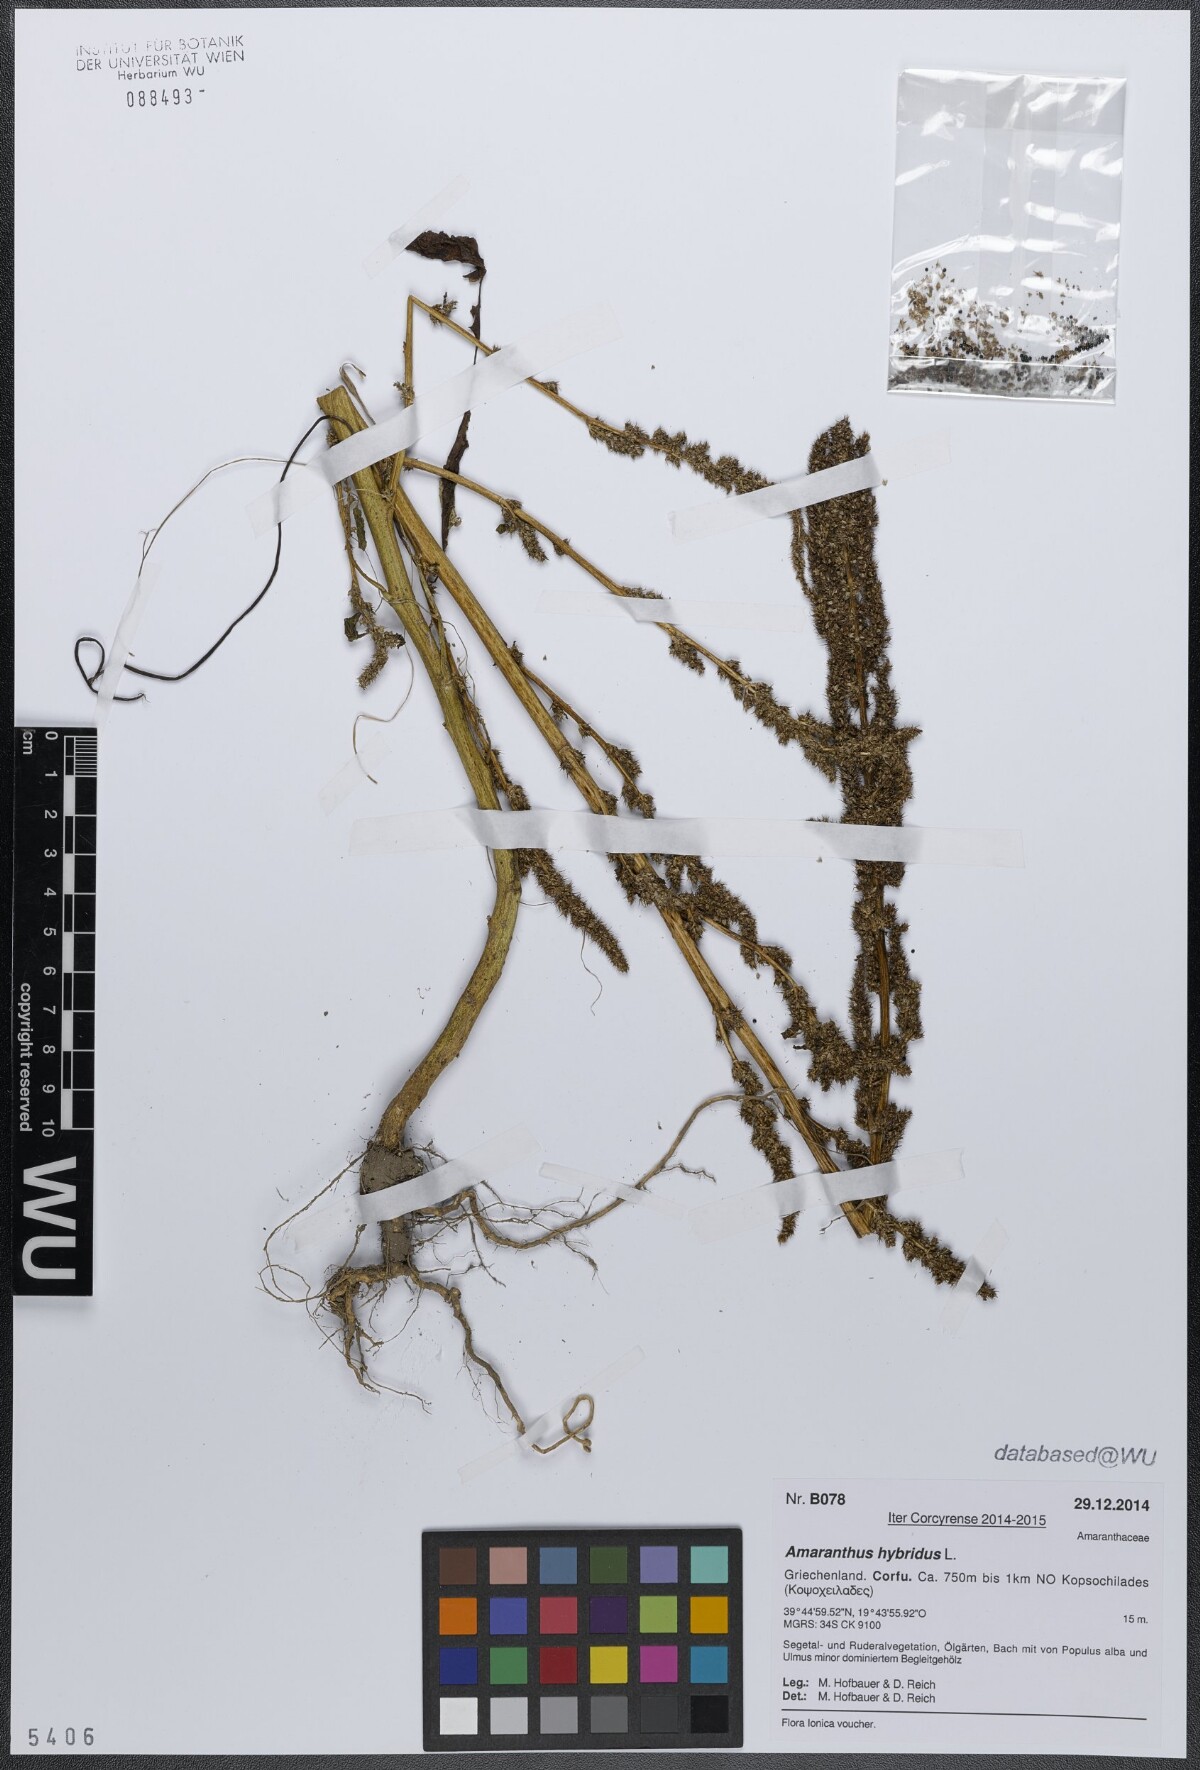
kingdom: Plantae
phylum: Tracheophyta
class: Magnoliopsida
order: Caryophyllales
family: Amaranthaceae
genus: Amaranthus
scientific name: Amaranthus hybridus
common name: Green amaranth
